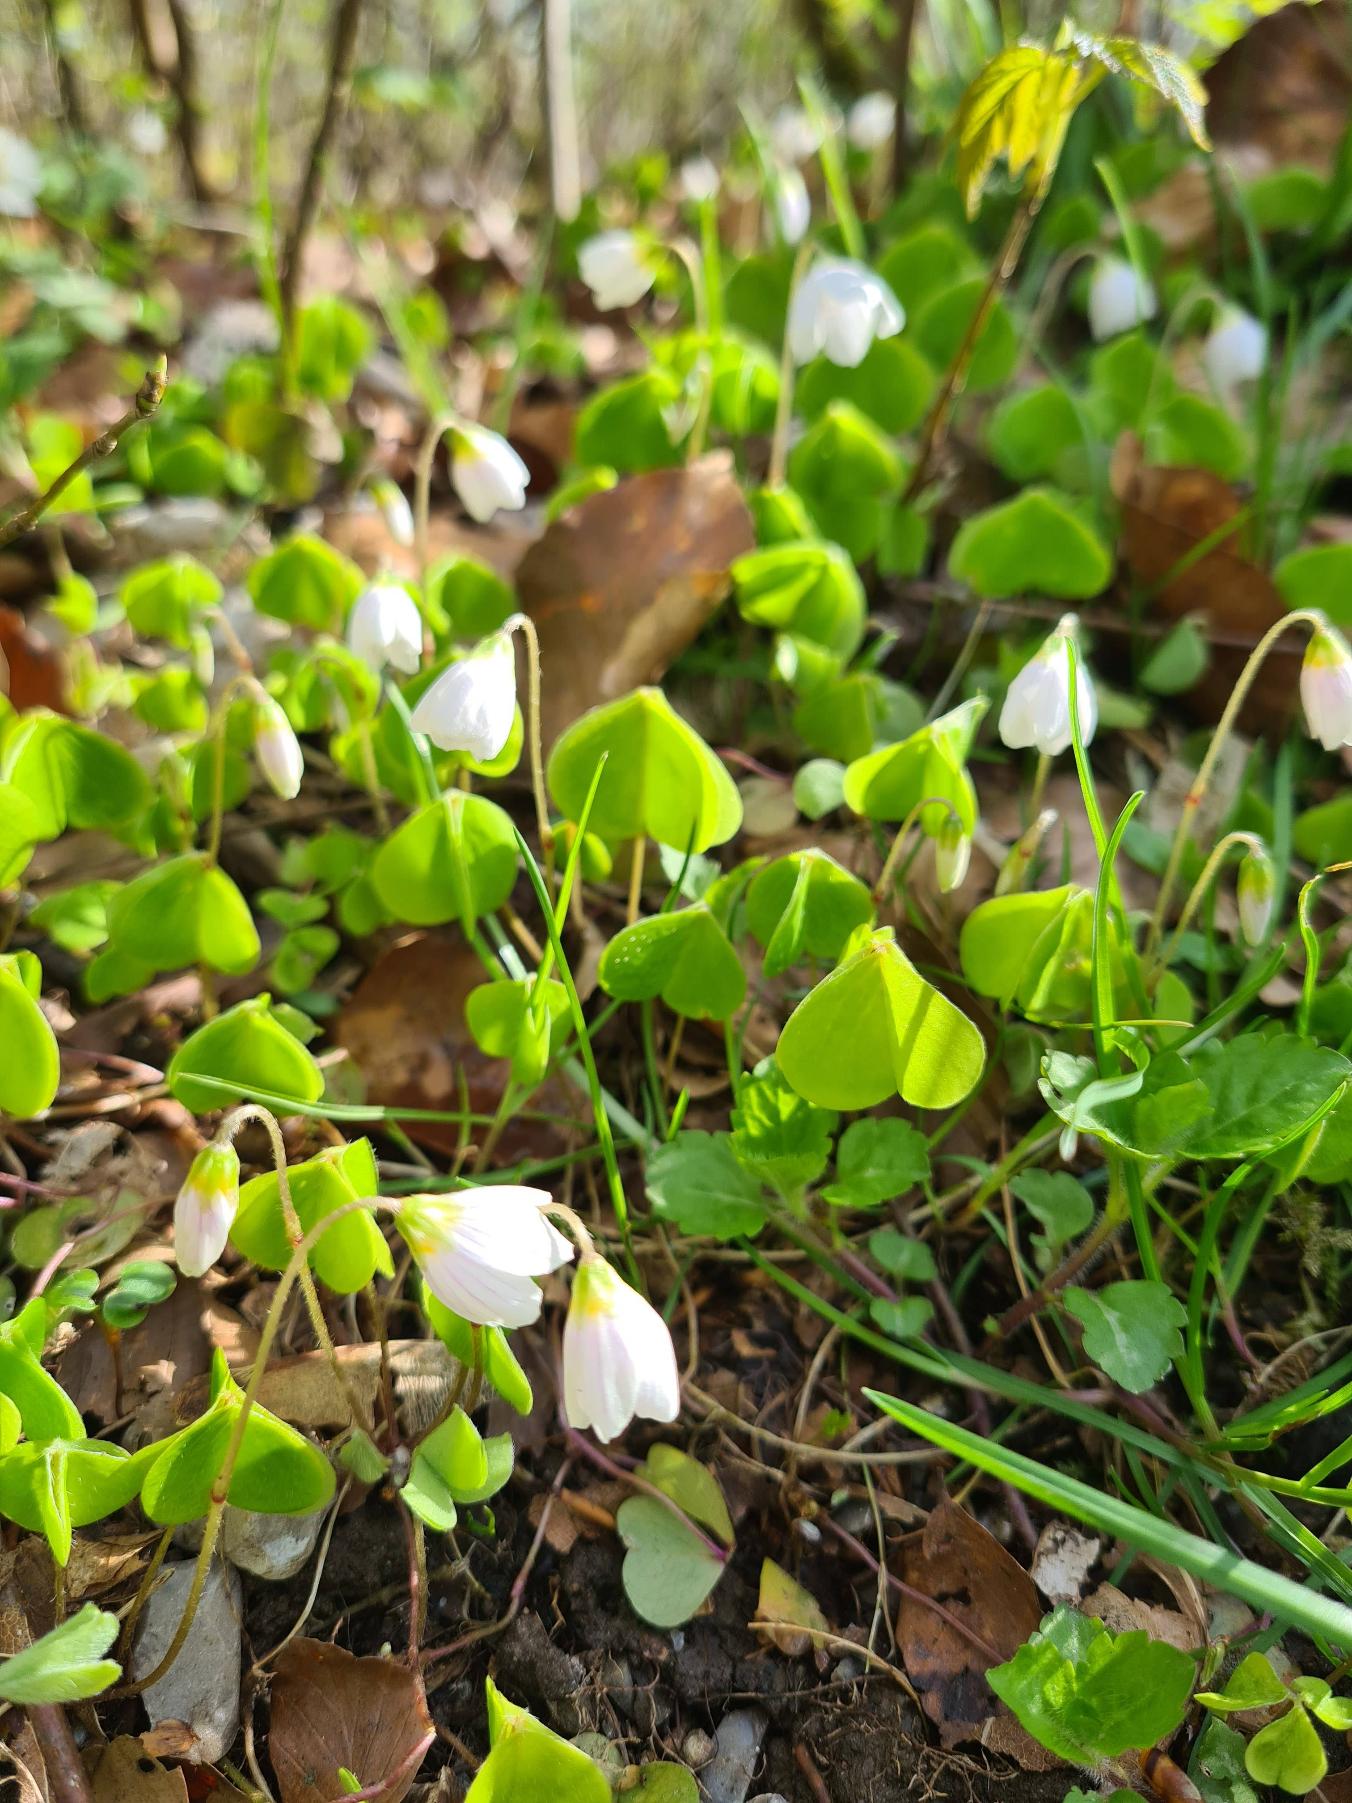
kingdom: Plantae
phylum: Tracheophyta
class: Magnoliopsida
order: Oxalidales
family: Oxalidaceae
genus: Oxalis
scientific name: Oxalis acetosella
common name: Skovsyre
